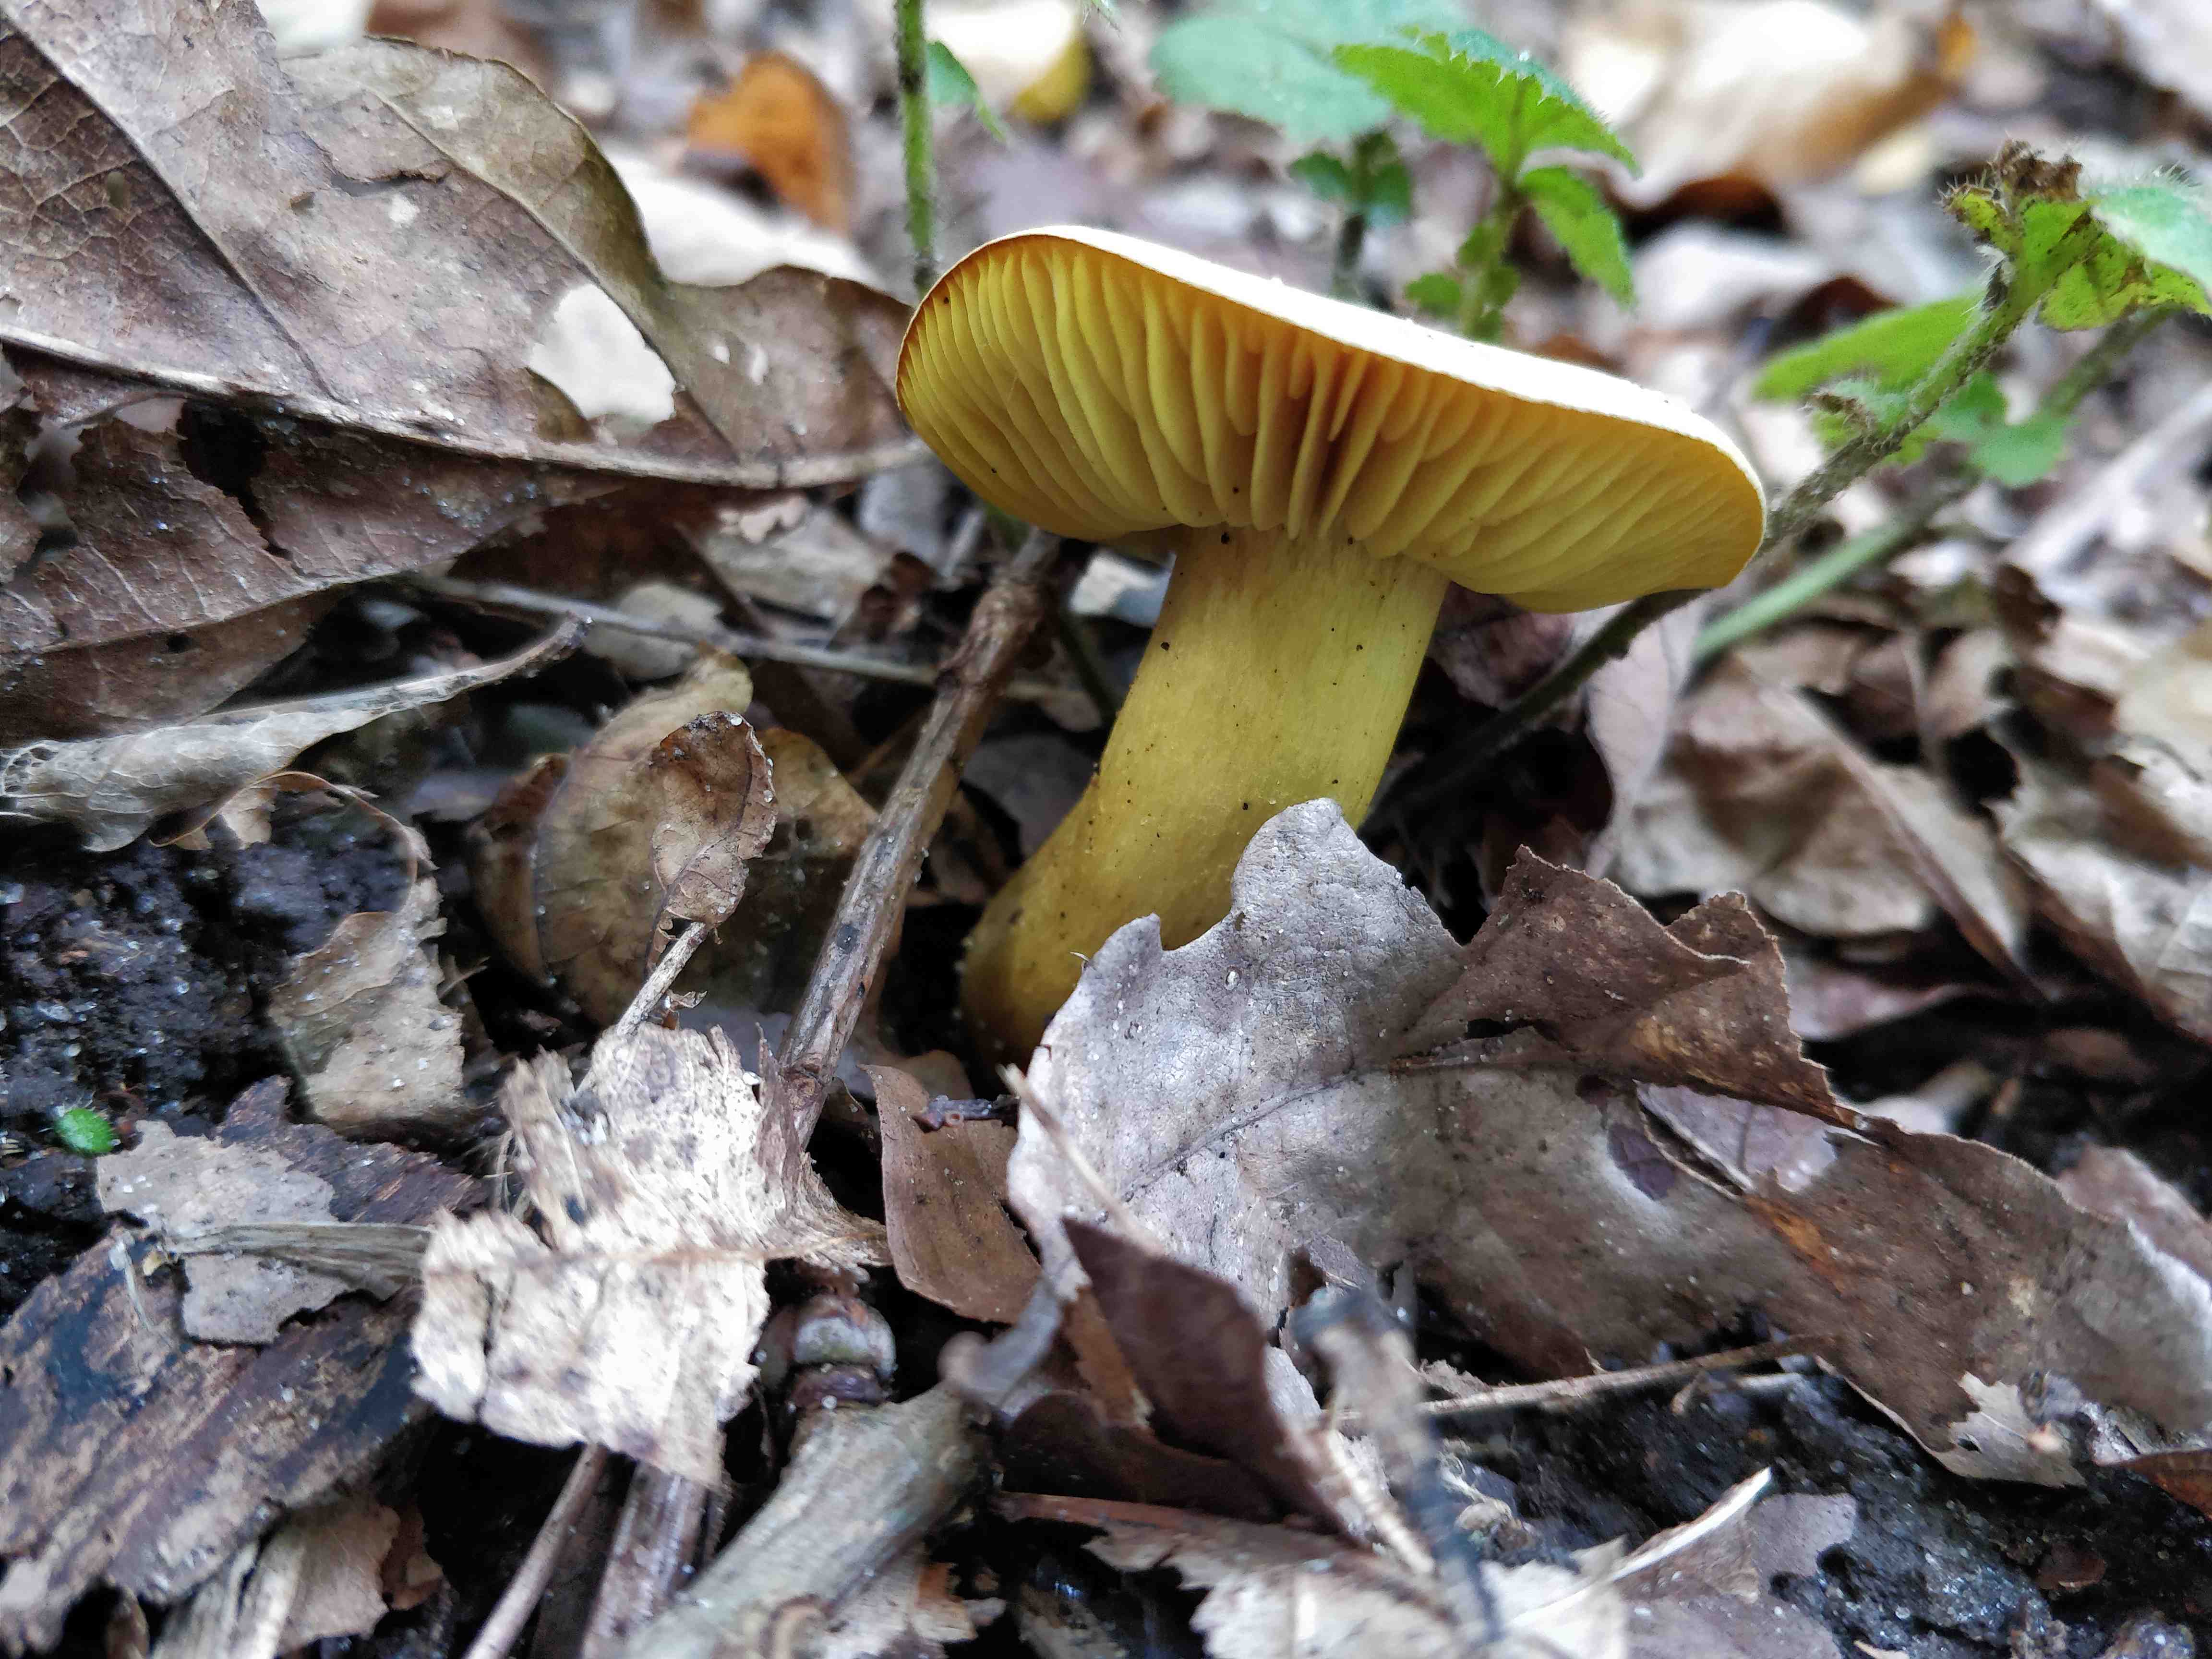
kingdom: Fungi
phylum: Basidiomycota
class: Agaricomycetes
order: Agaricales
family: Tricholomataceae
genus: Tricholoma
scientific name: Tricholoma sulphureum
